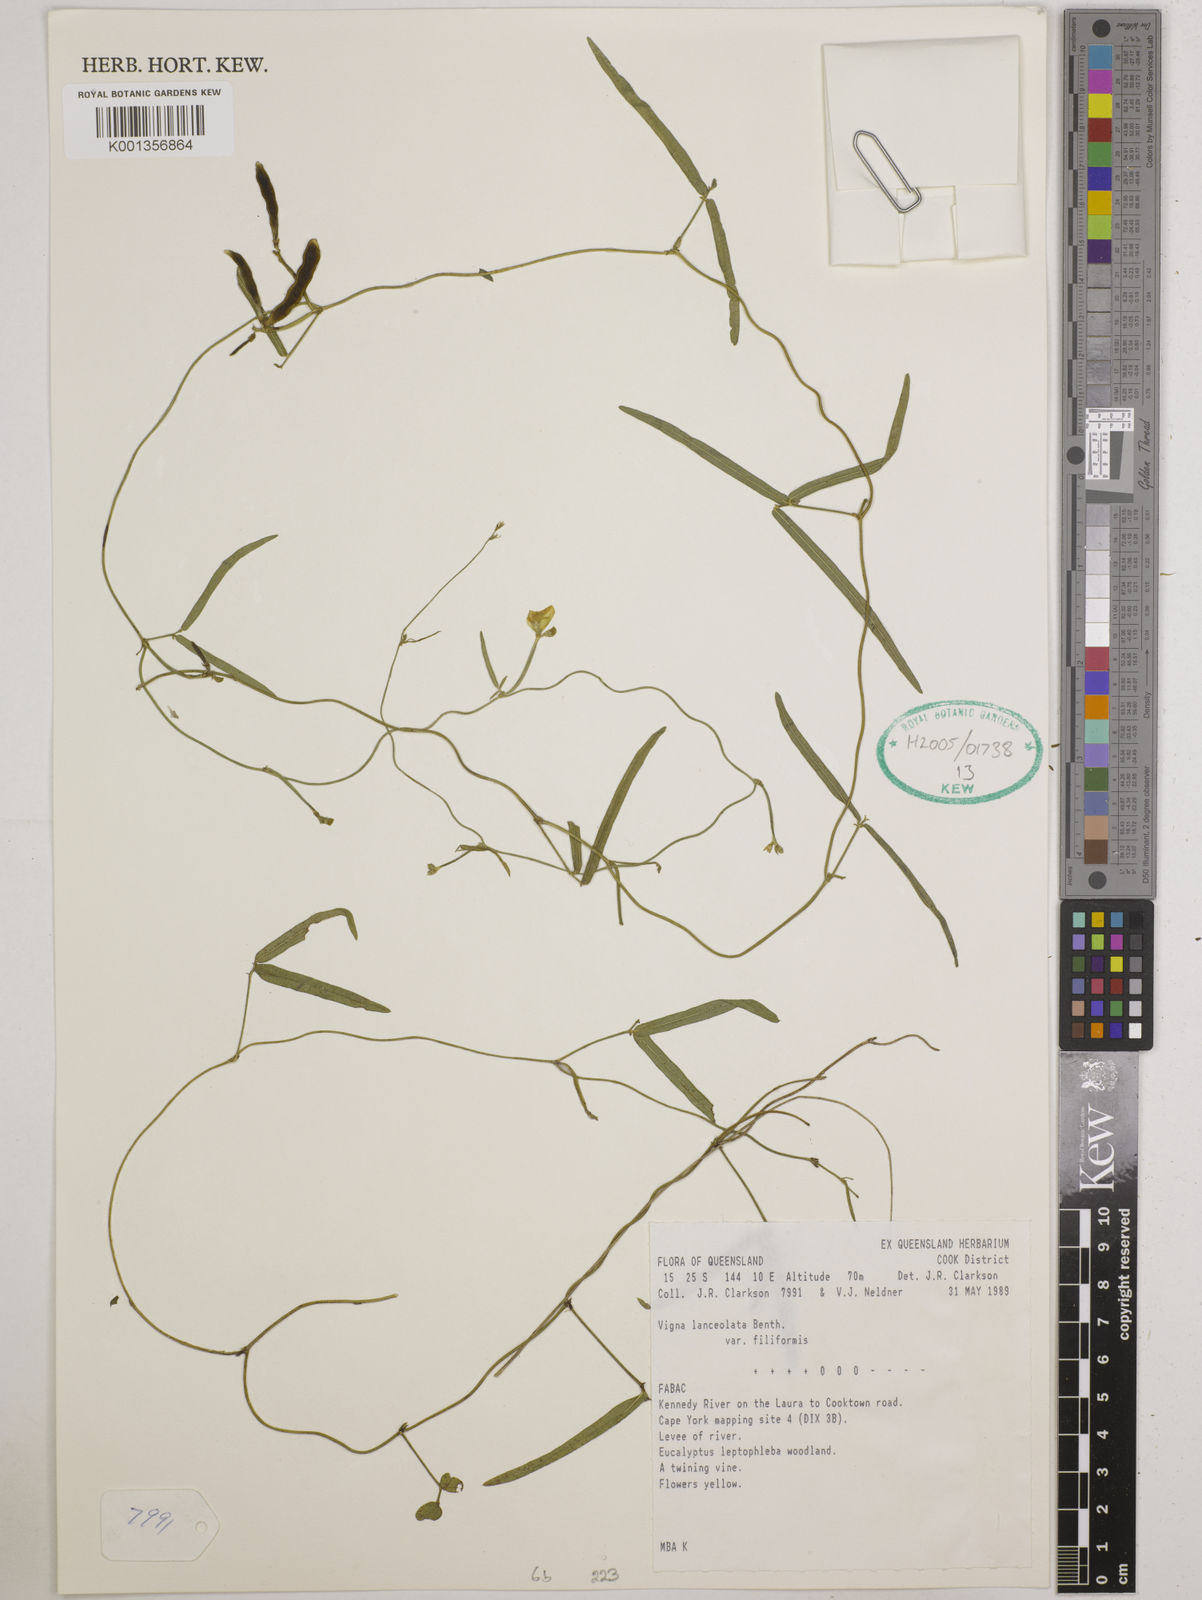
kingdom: Plantae
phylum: Tracheophyta
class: Magnoliopsida
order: Fabales
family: Fabaceae
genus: Vigna
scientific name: Vigna lanceolata
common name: Maloga-bean
